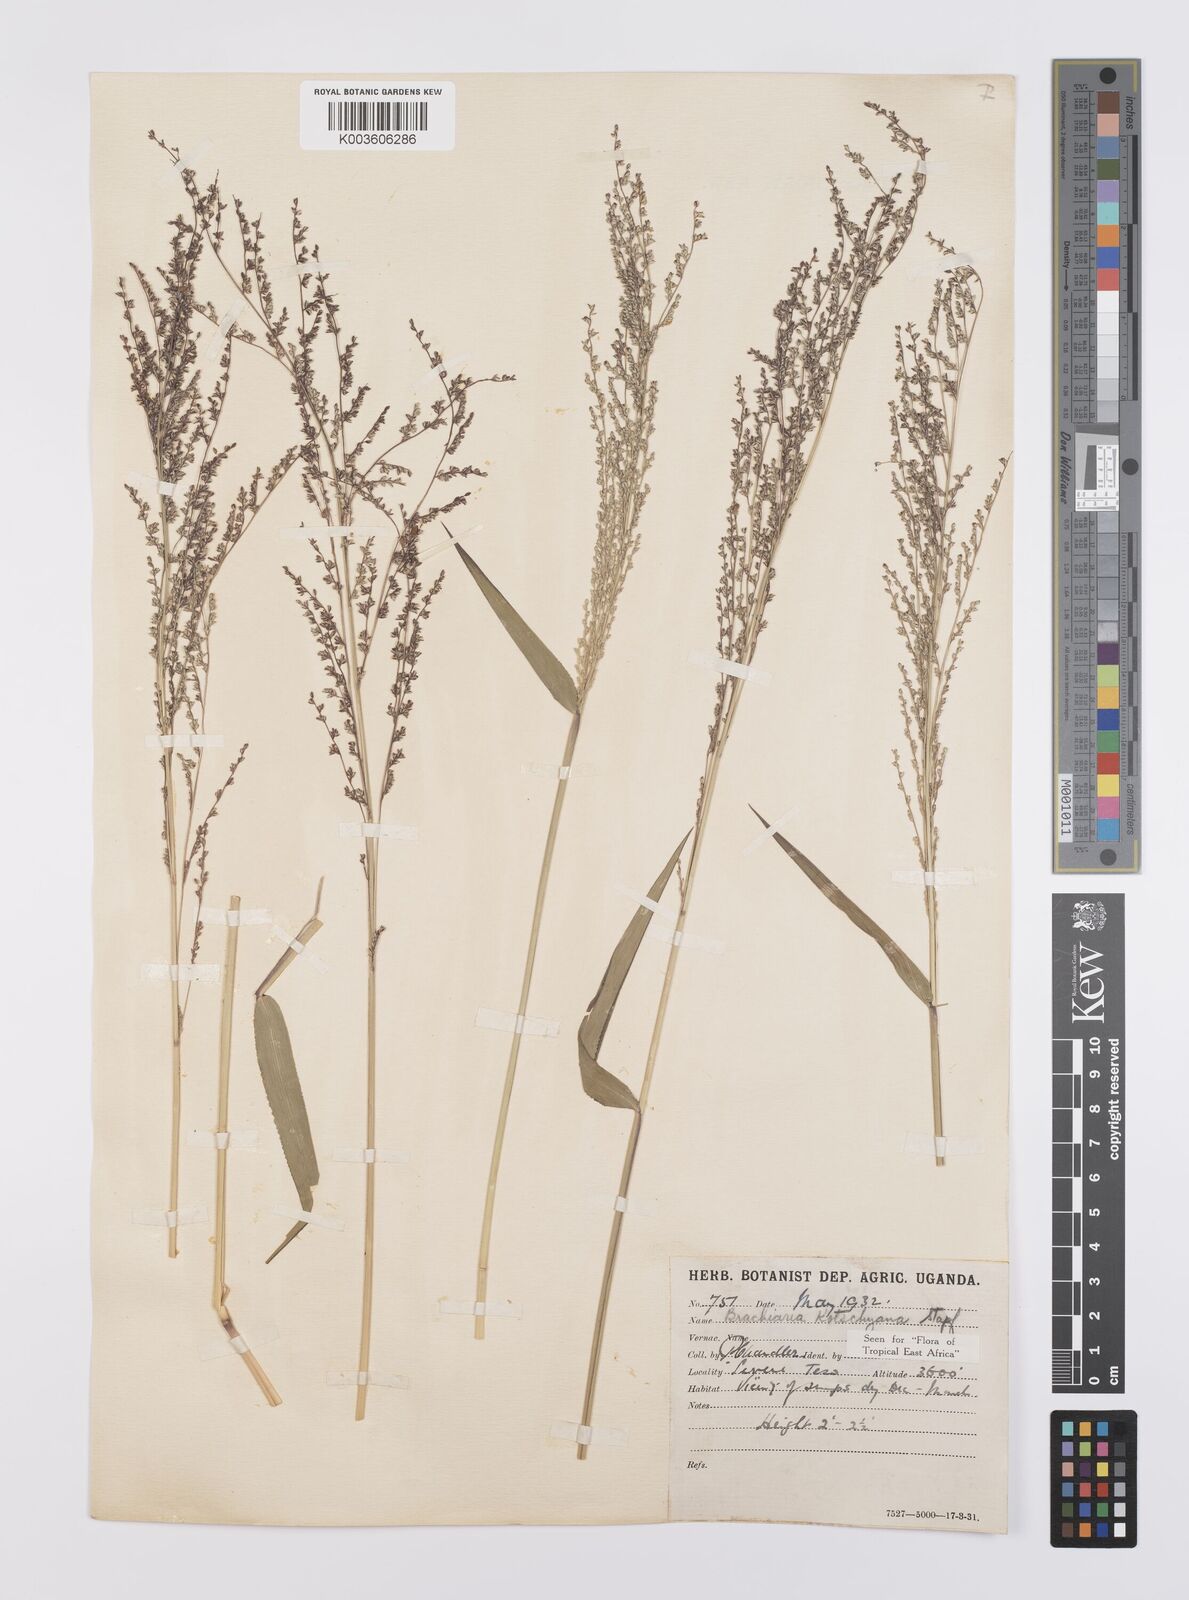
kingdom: Plantae
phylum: Tracheophyta
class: Liliopsida
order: Poales
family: Poaceae
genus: Urochloa
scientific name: Urochloa comata
